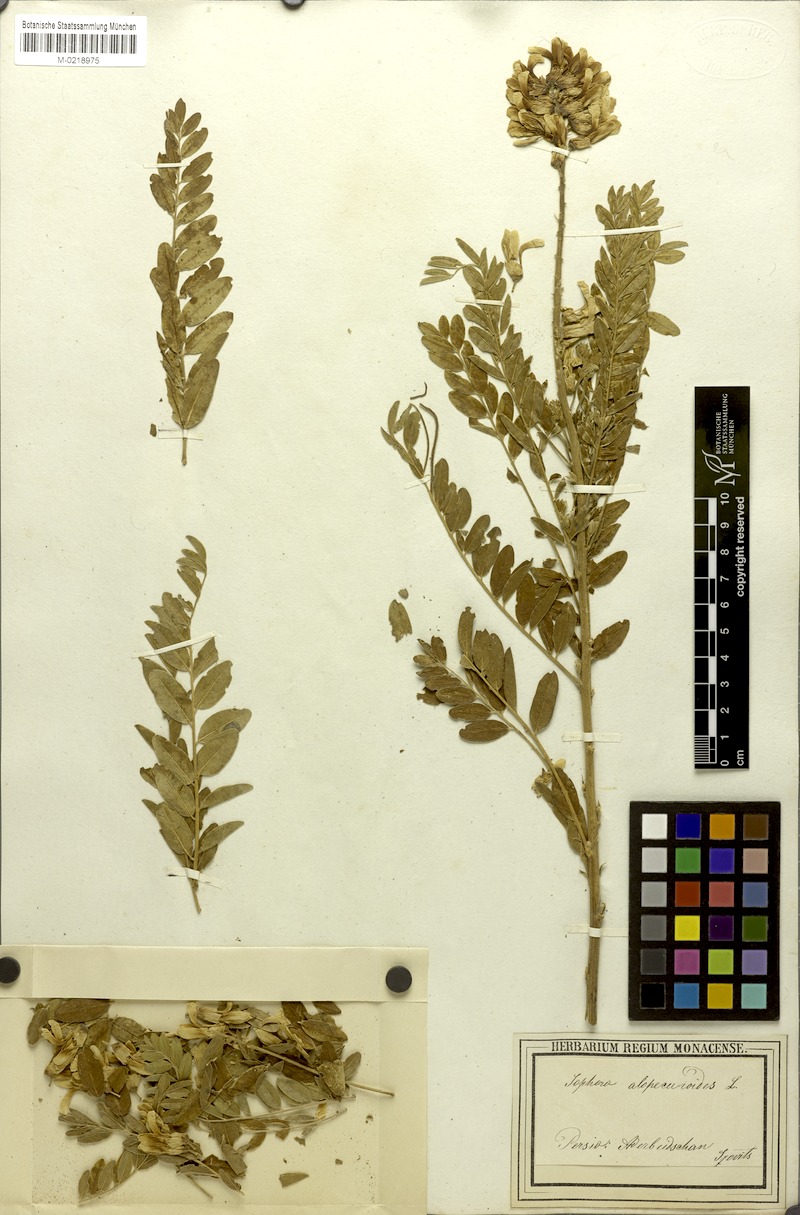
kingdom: Plantae
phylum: Tracheophyta
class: Magnoliopsida
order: Fabales
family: Fabaceae
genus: Sophora
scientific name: Sophora alopecuroides
